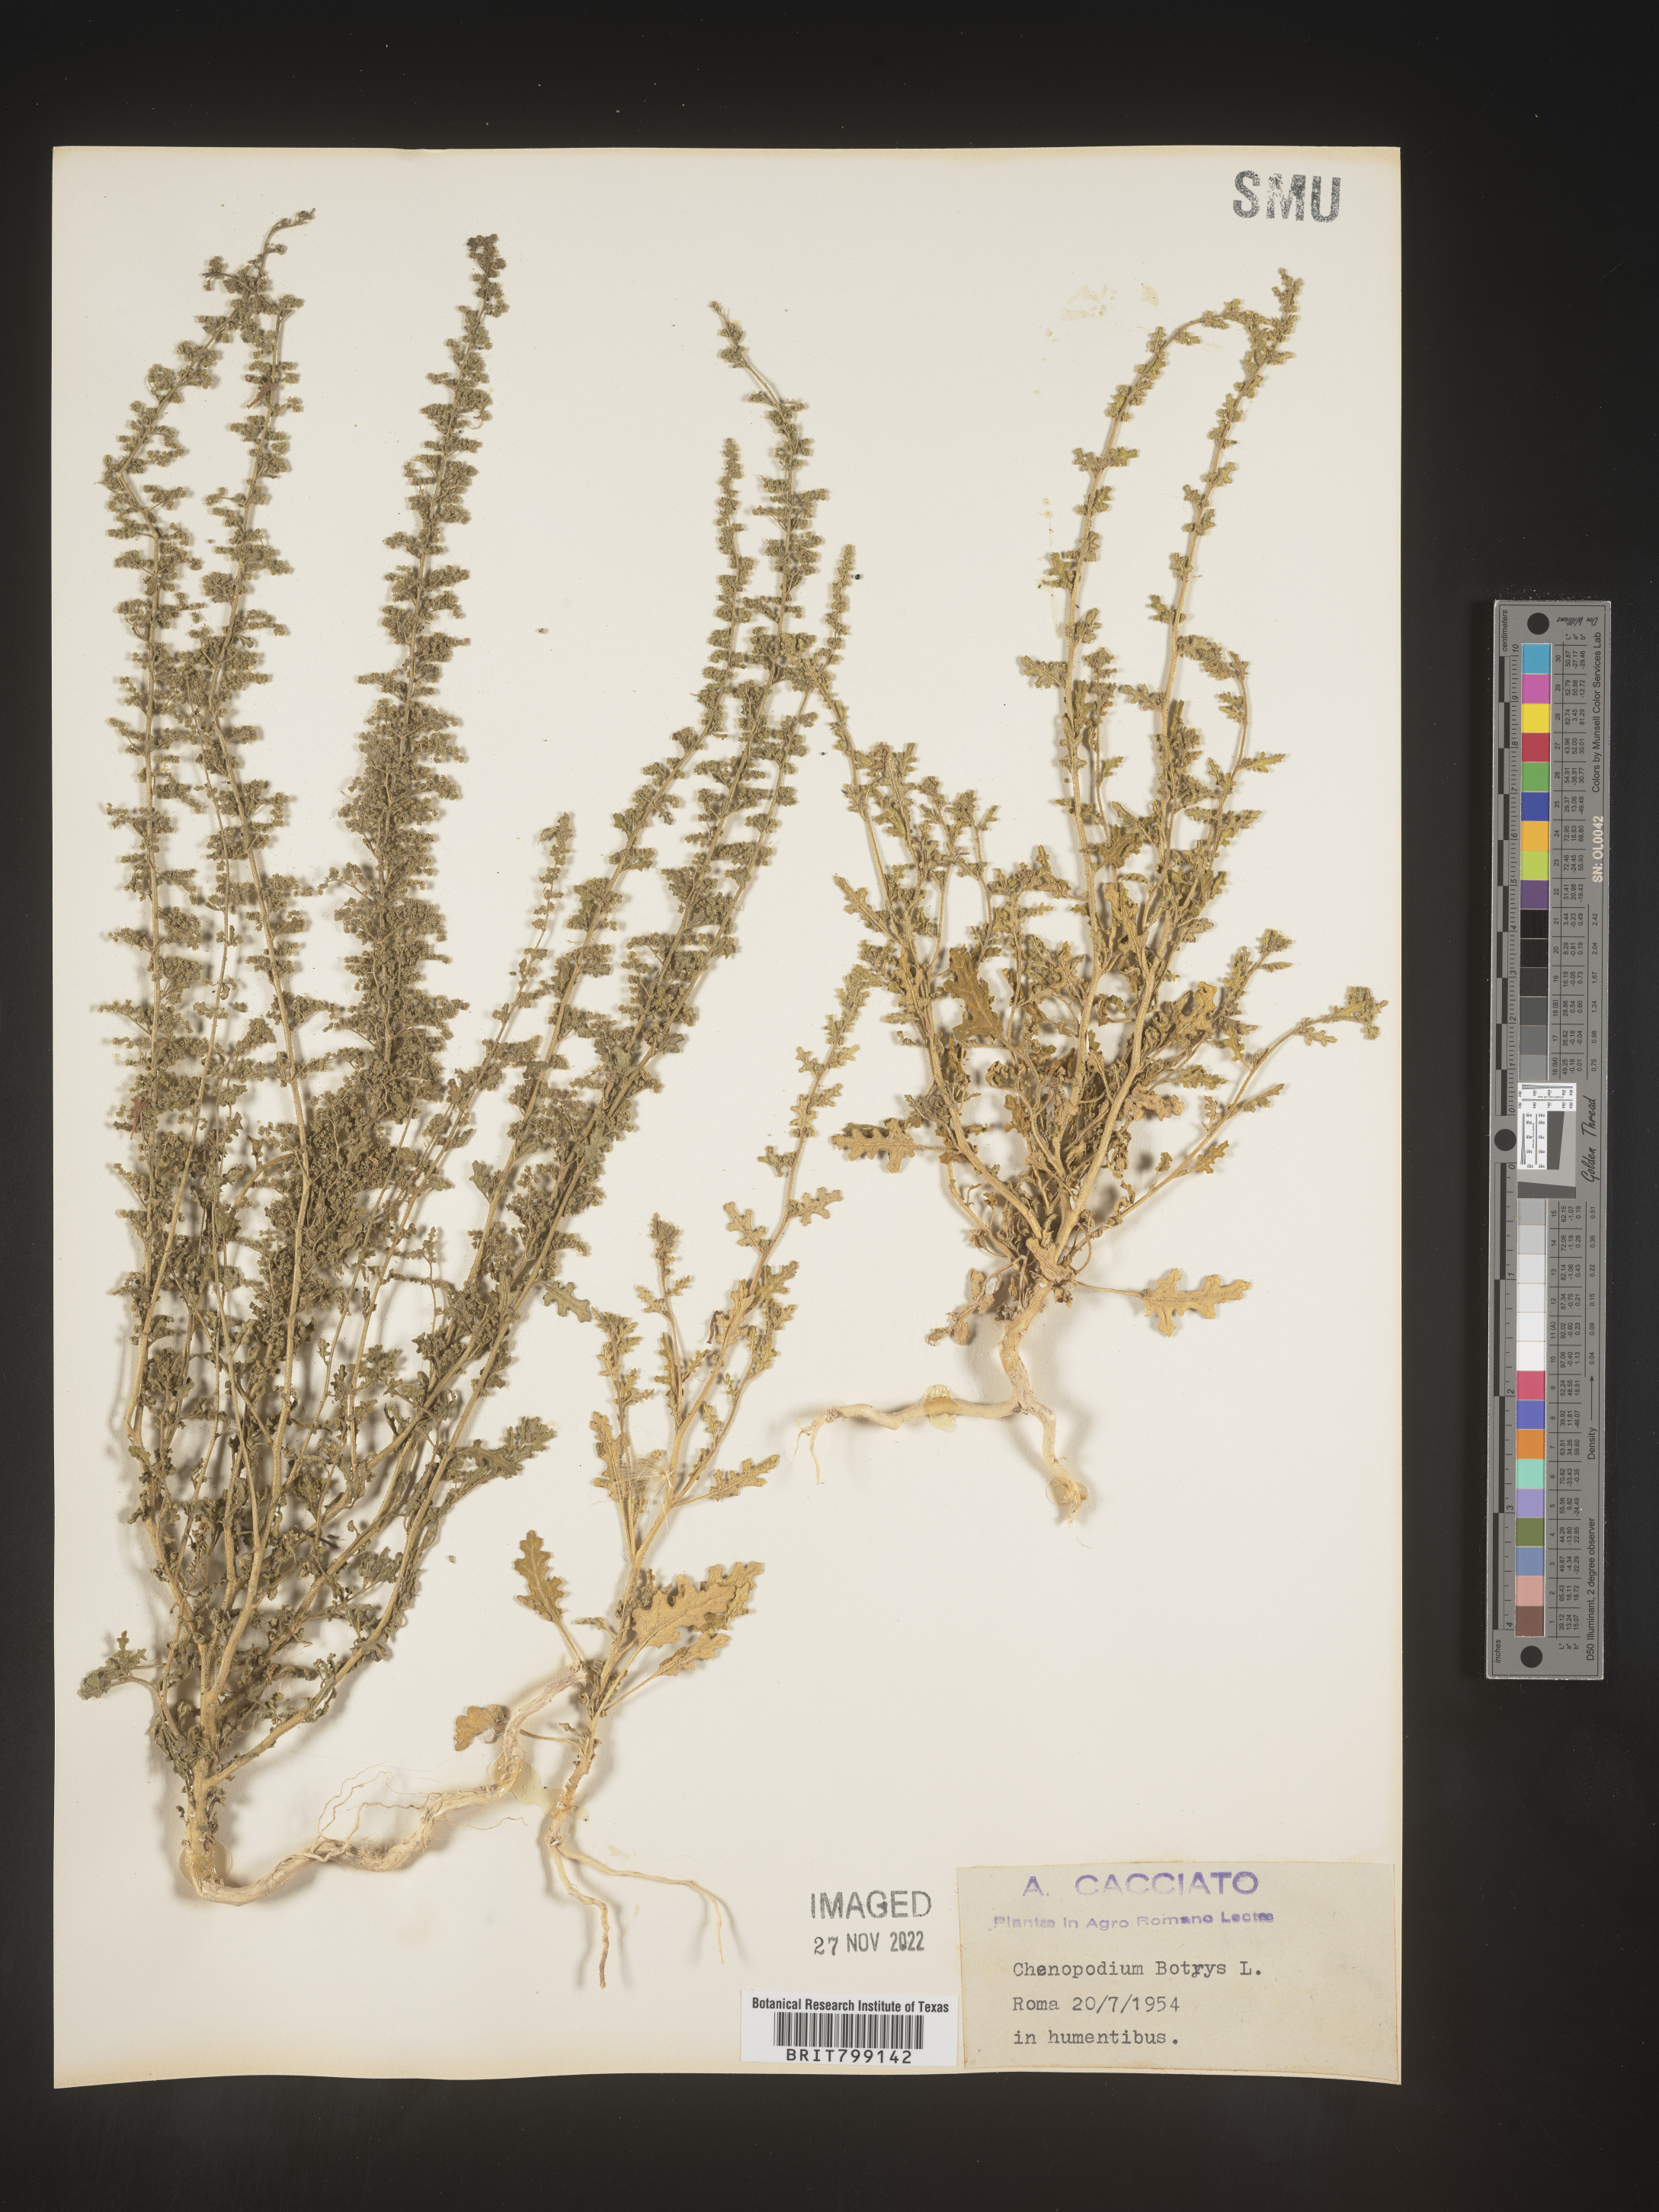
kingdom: Plantae
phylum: Tracheophyta
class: Magnoliopsida
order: Caryophyllales
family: Amaranthaceae
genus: Dysphania
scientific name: Dysphania botrys
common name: Feather-geranium
